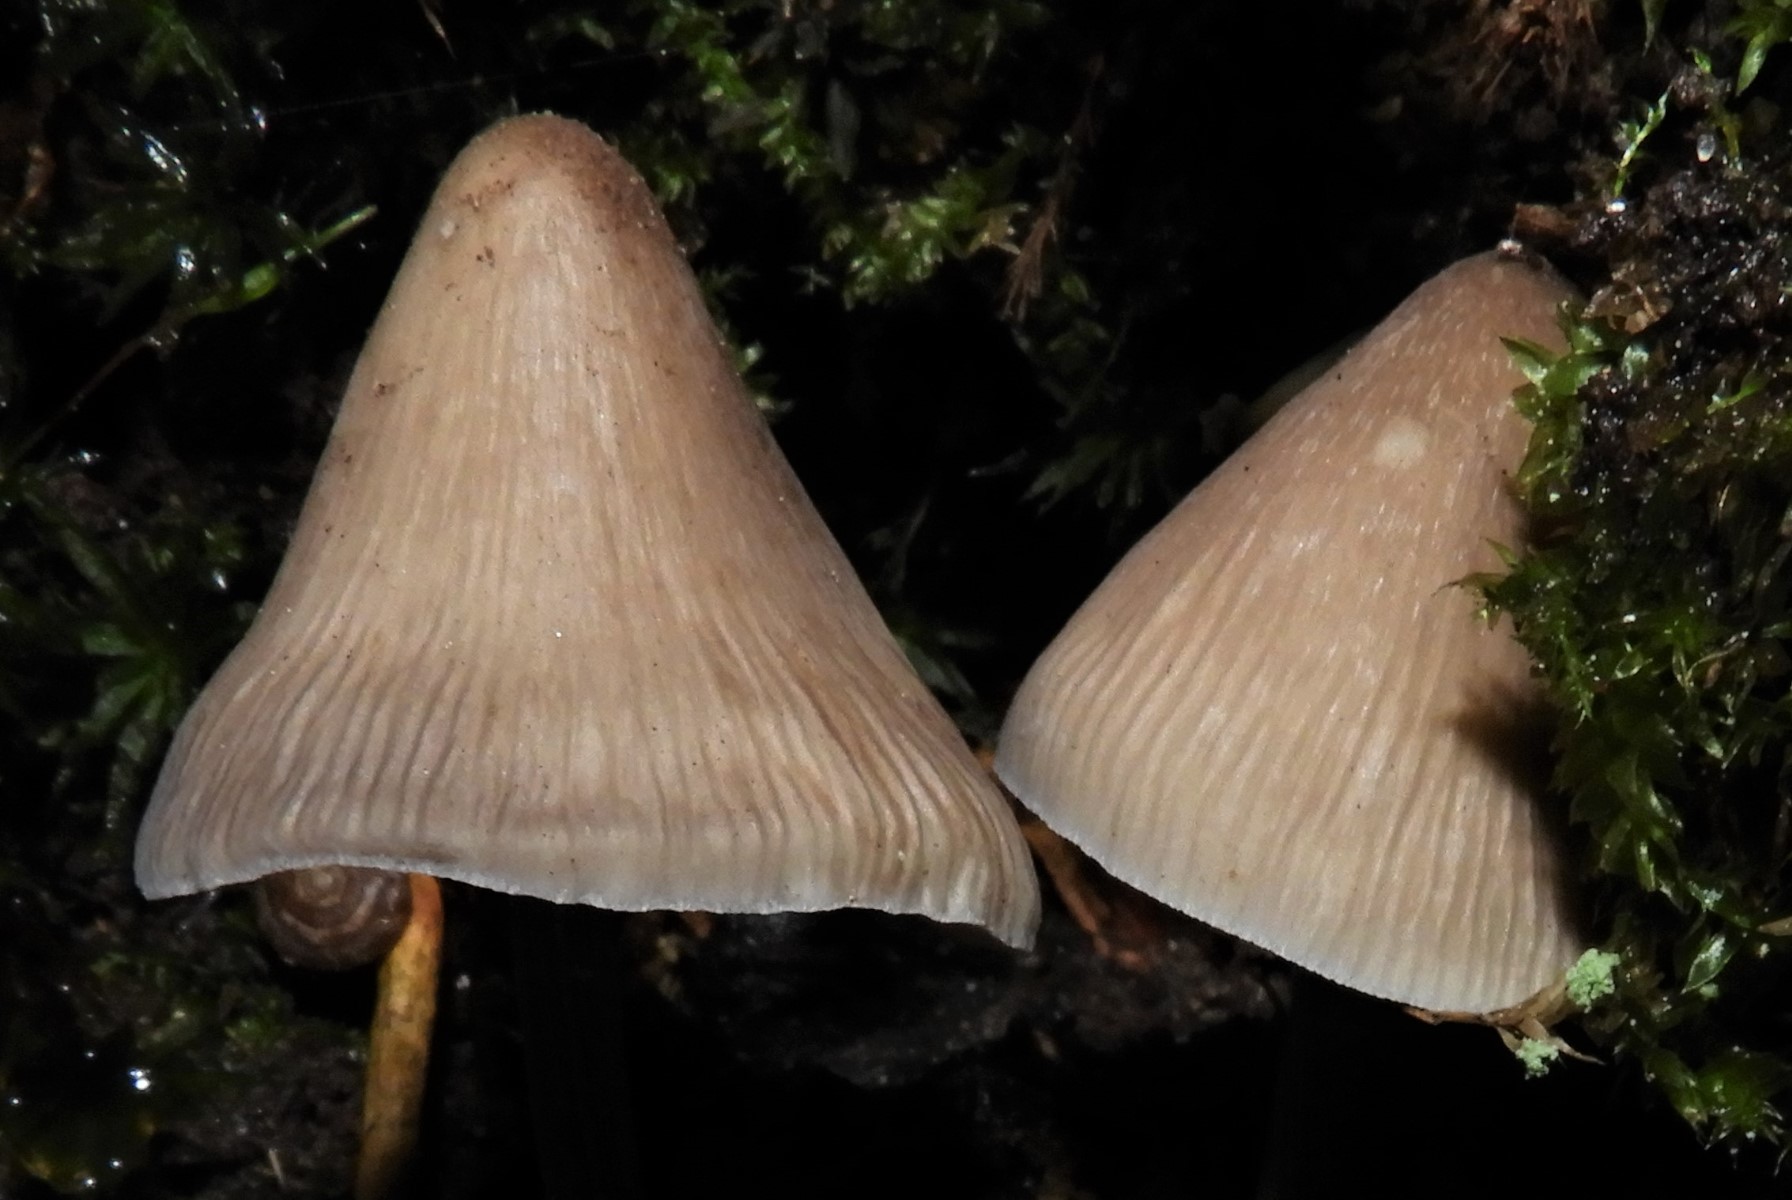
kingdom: Fungi
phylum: Basidiomycota
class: Agaricomycetes
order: Agaricales
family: Mycenaceae
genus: Mycena
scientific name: Mycena polygramma
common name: mangestribet huesvamp
